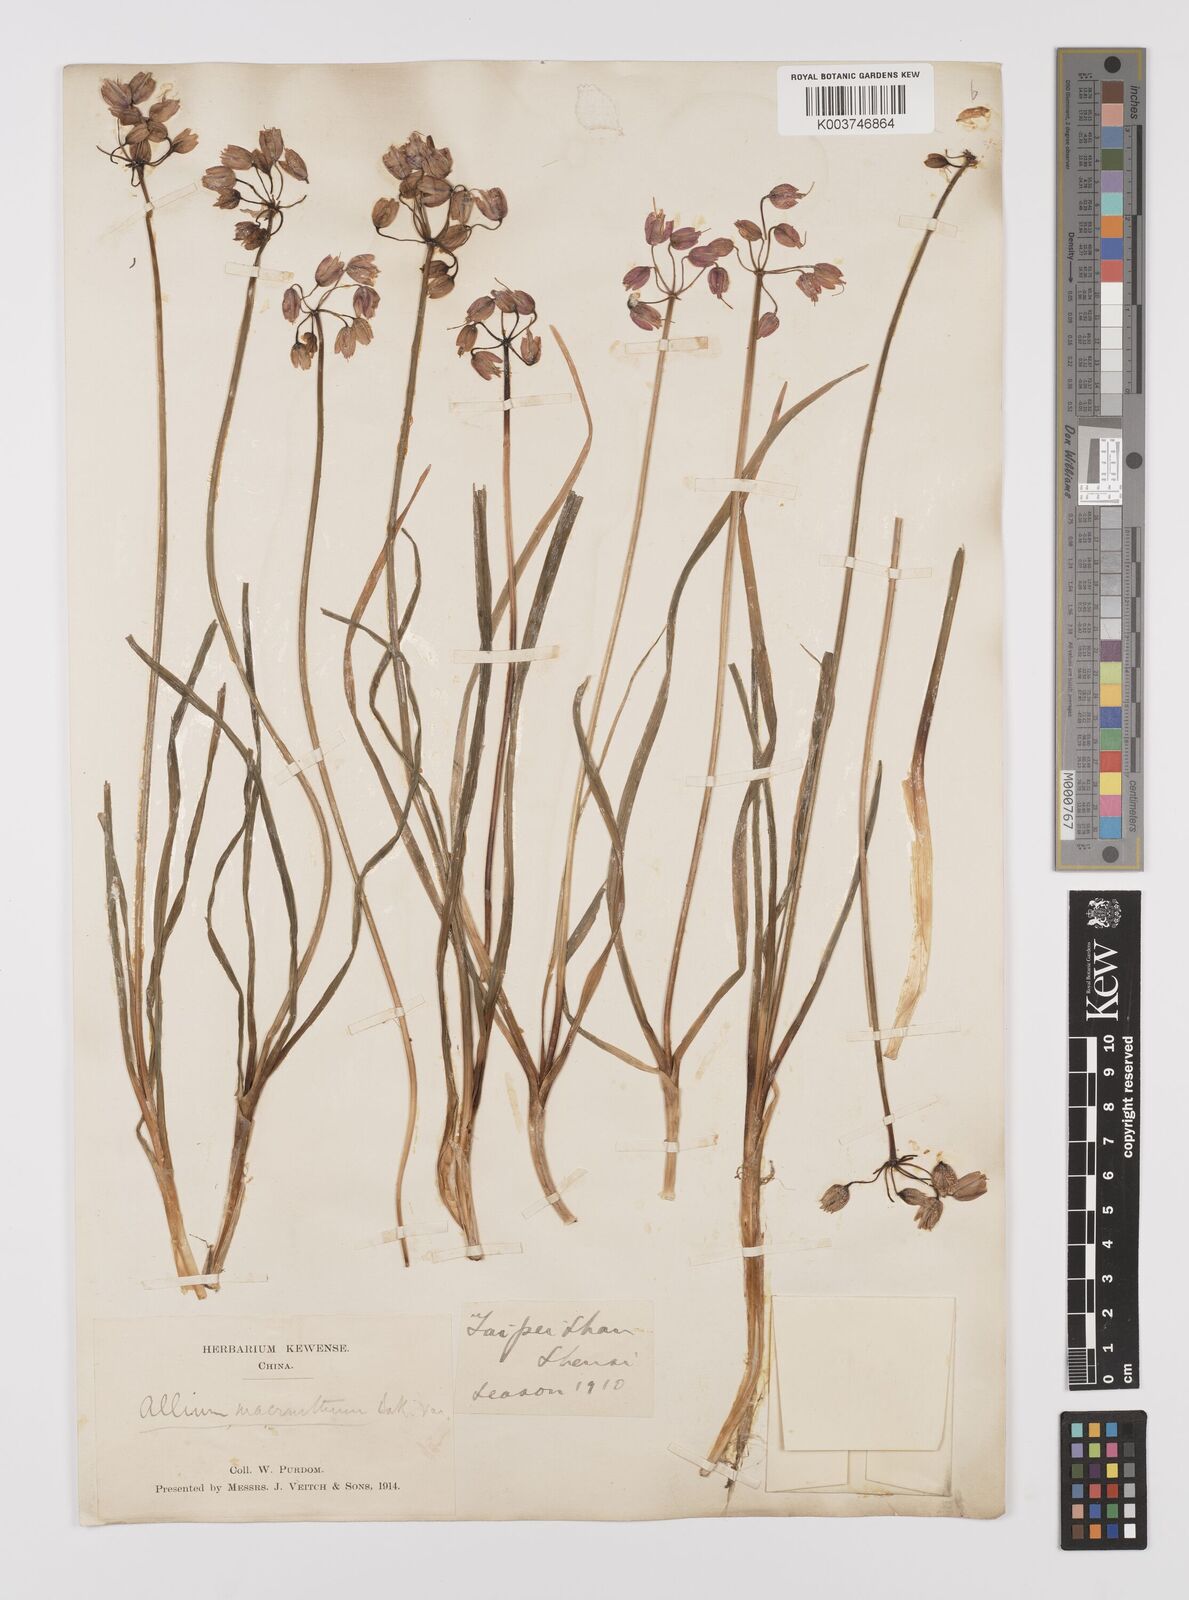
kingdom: Plantae
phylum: Tracheophyta
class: Liliopsida
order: Asparagales
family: Amaryllidaceae
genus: Allium
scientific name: Allium macranthum
